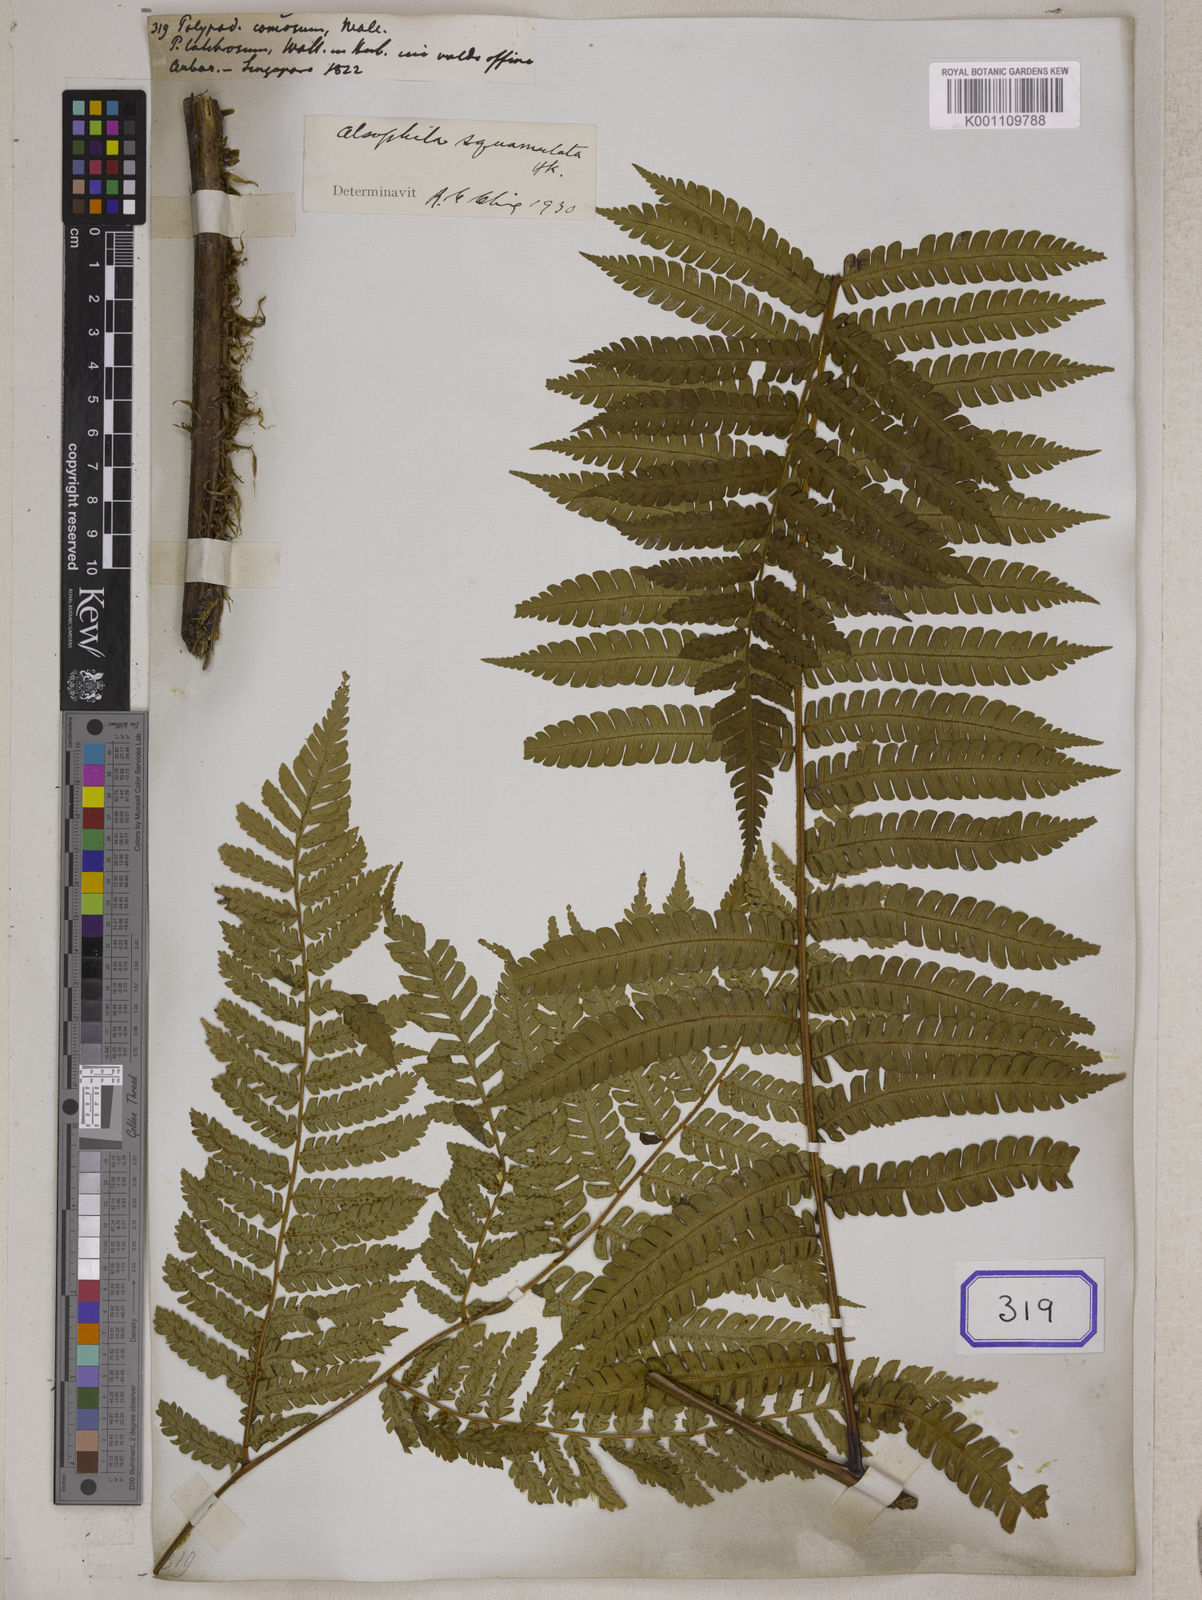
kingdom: Plantae
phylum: Tracheophyta
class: Polypodiopsida
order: Cyatheales
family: Cyatheaceae
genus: Sphaeropteris
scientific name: Sphaeropteris squamulata
